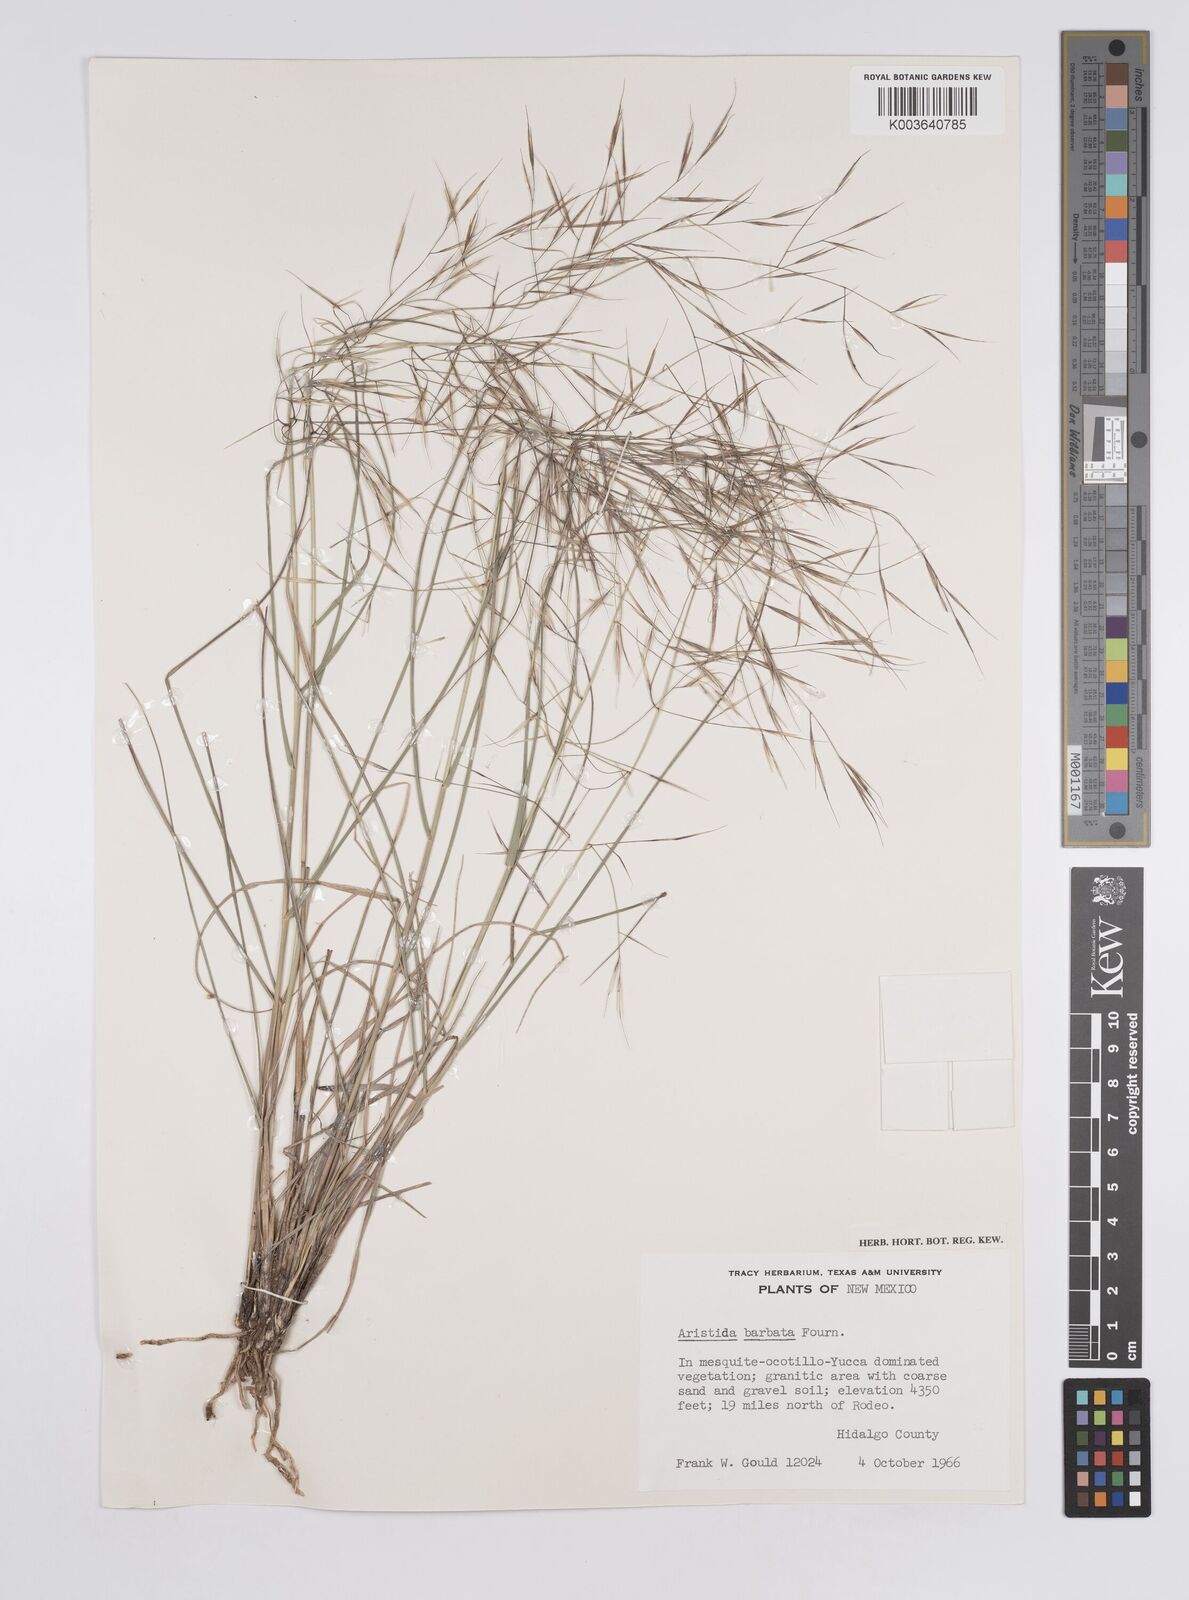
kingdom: Plantae
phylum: Tracheophyta
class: Liliopsida
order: Poales
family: Poaceae
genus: Aristida
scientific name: Aristida havardii
